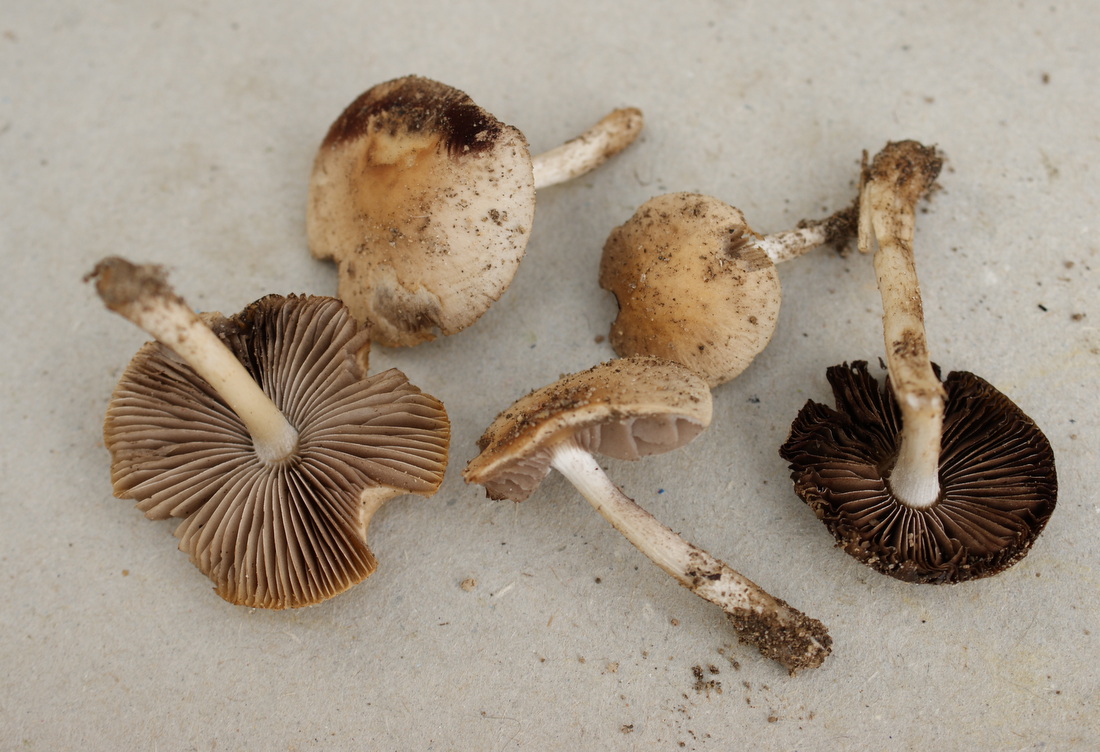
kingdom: Fungi
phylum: Basidiomycota
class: Agaricomycetes
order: Agaricales
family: Psathyrellaceae
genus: Candolleomyces
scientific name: Candolleomyces candolleanus
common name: Candolles mørkhat
